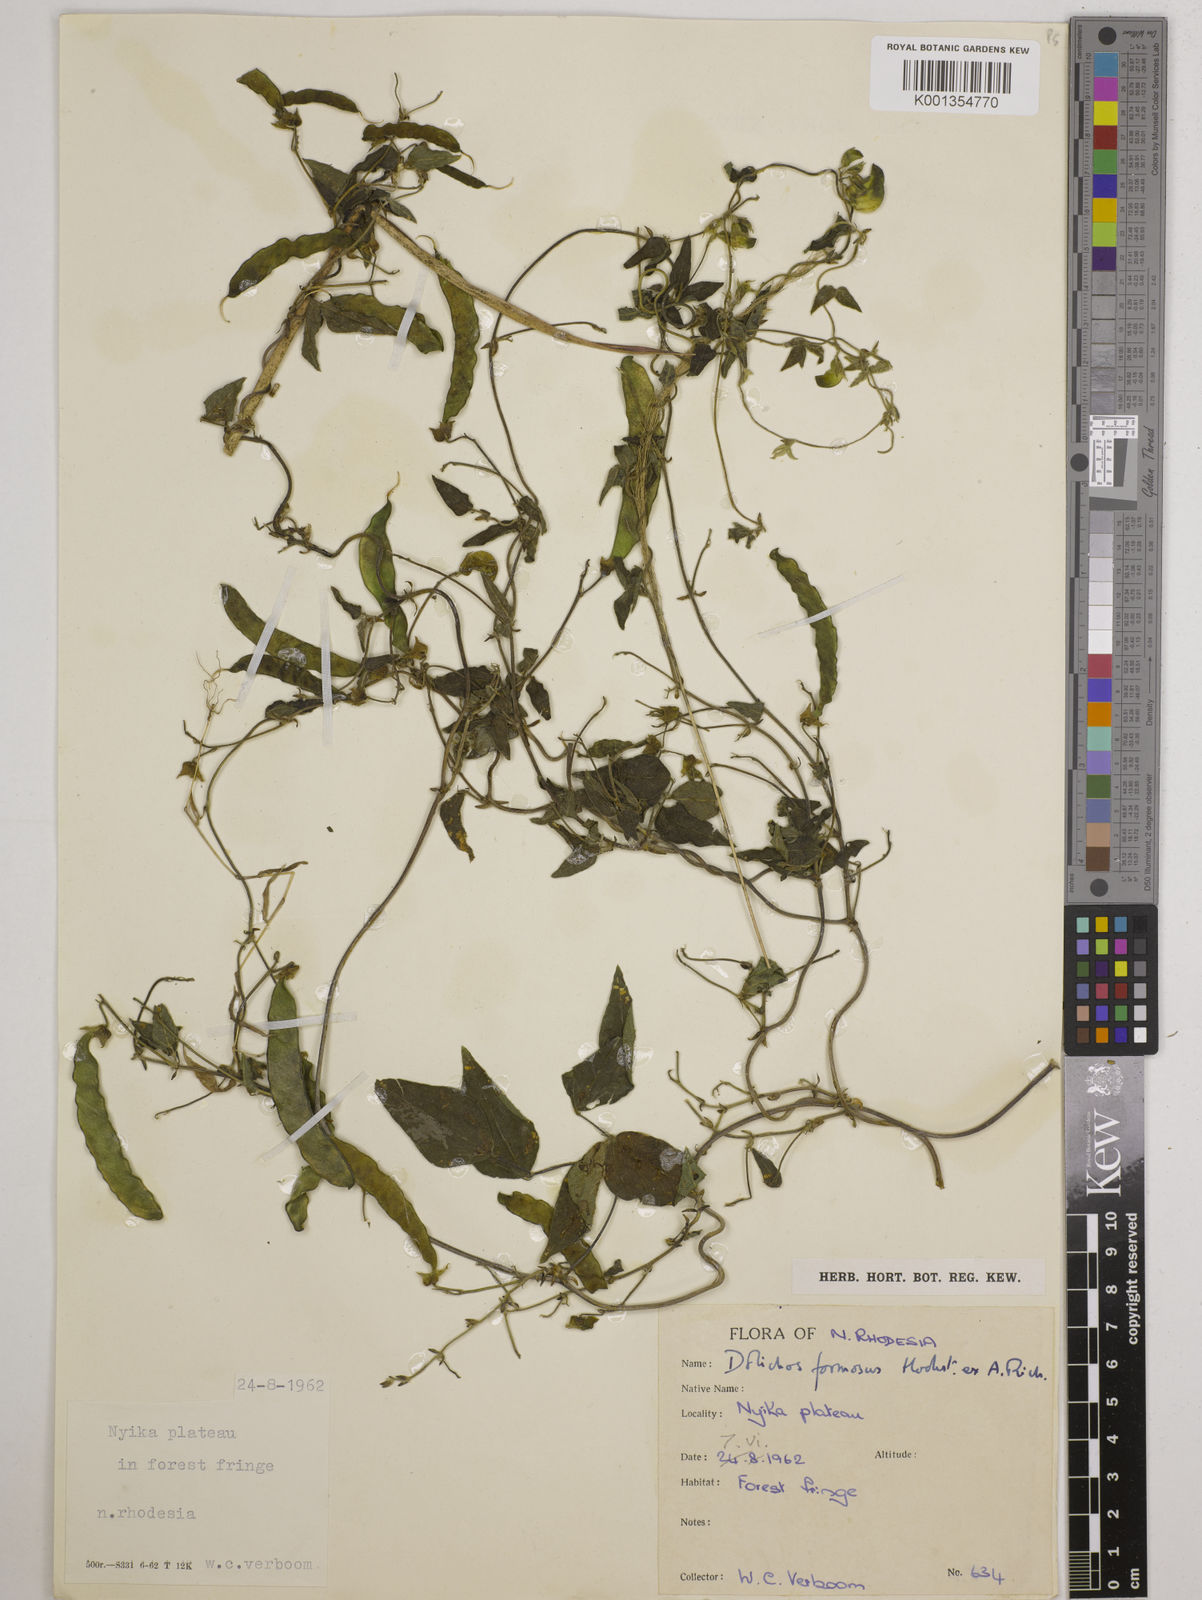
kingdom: Plantae
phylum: Tracheophyta
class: Magnoliopsida
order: Fabales
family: Fabaceae
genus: Dolichos
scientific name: Dolichos
